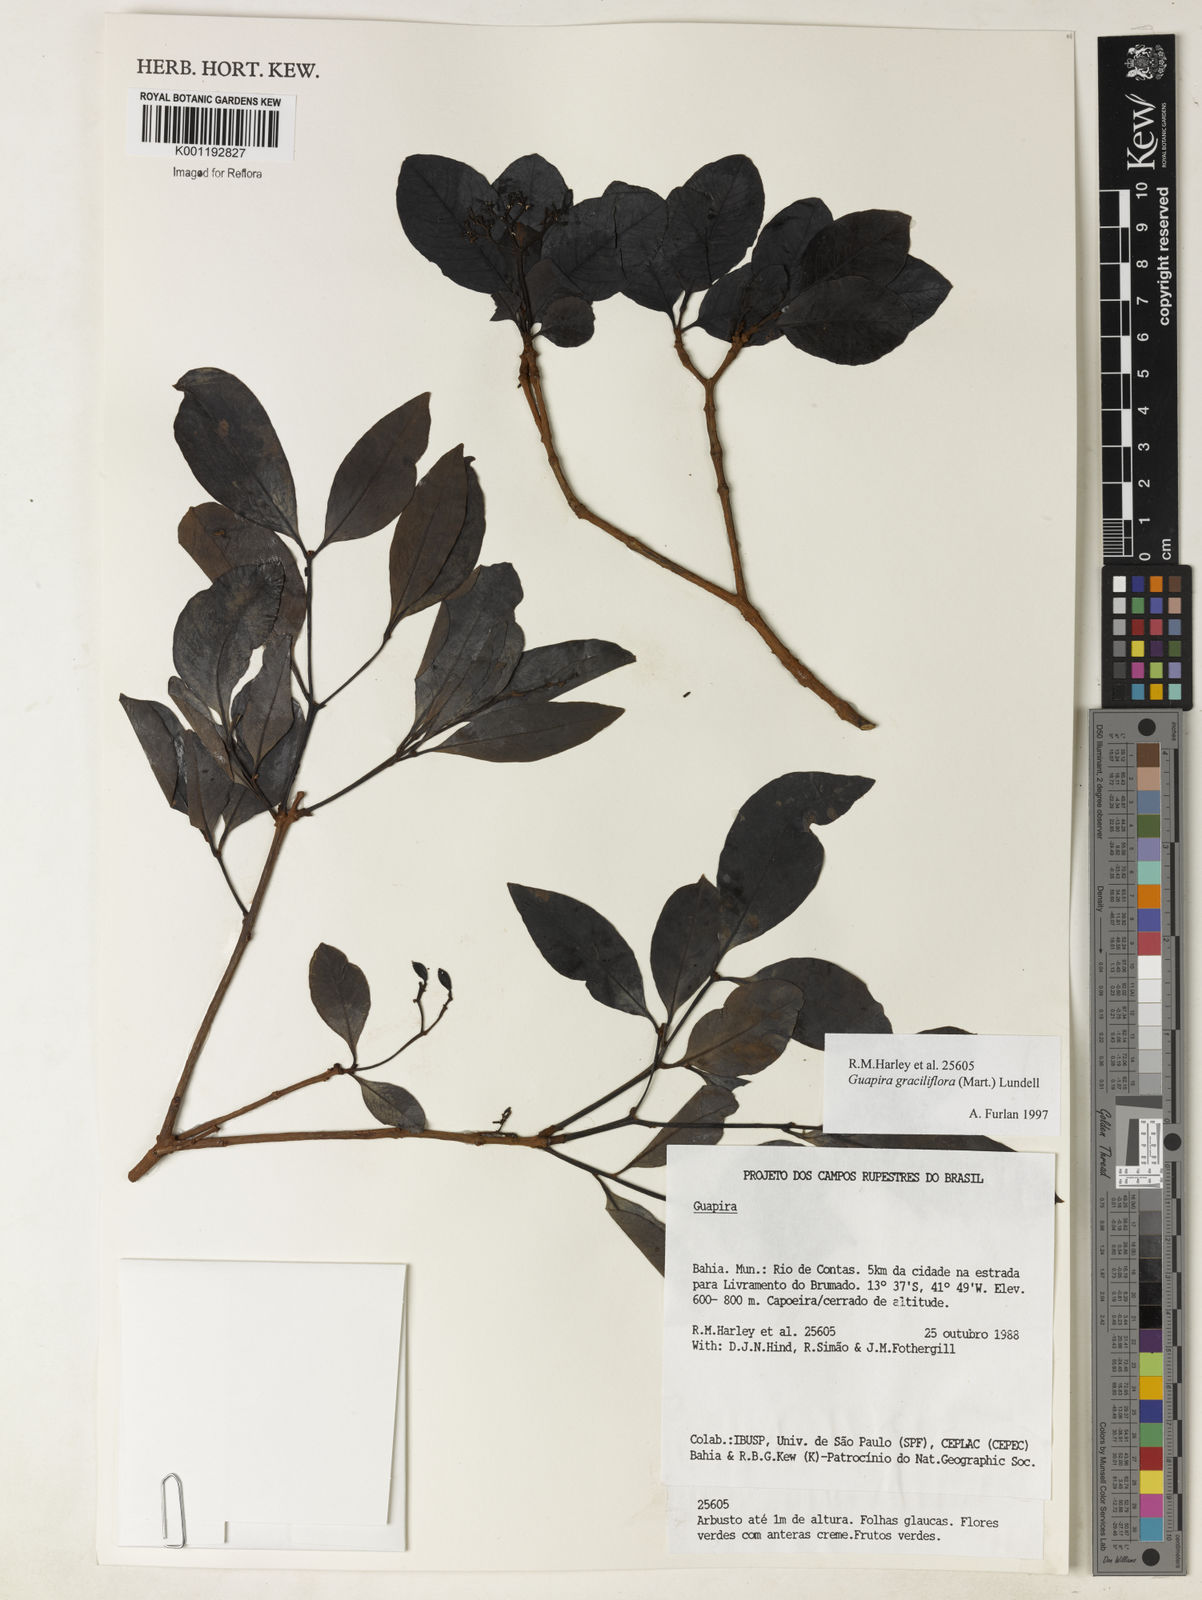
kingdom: Plantae
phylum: Tracheophyta
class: Magnoliopsida
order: Caryophyllales
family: Nyctaginaceae
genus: Guapira
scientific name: Guapira graciliflora
